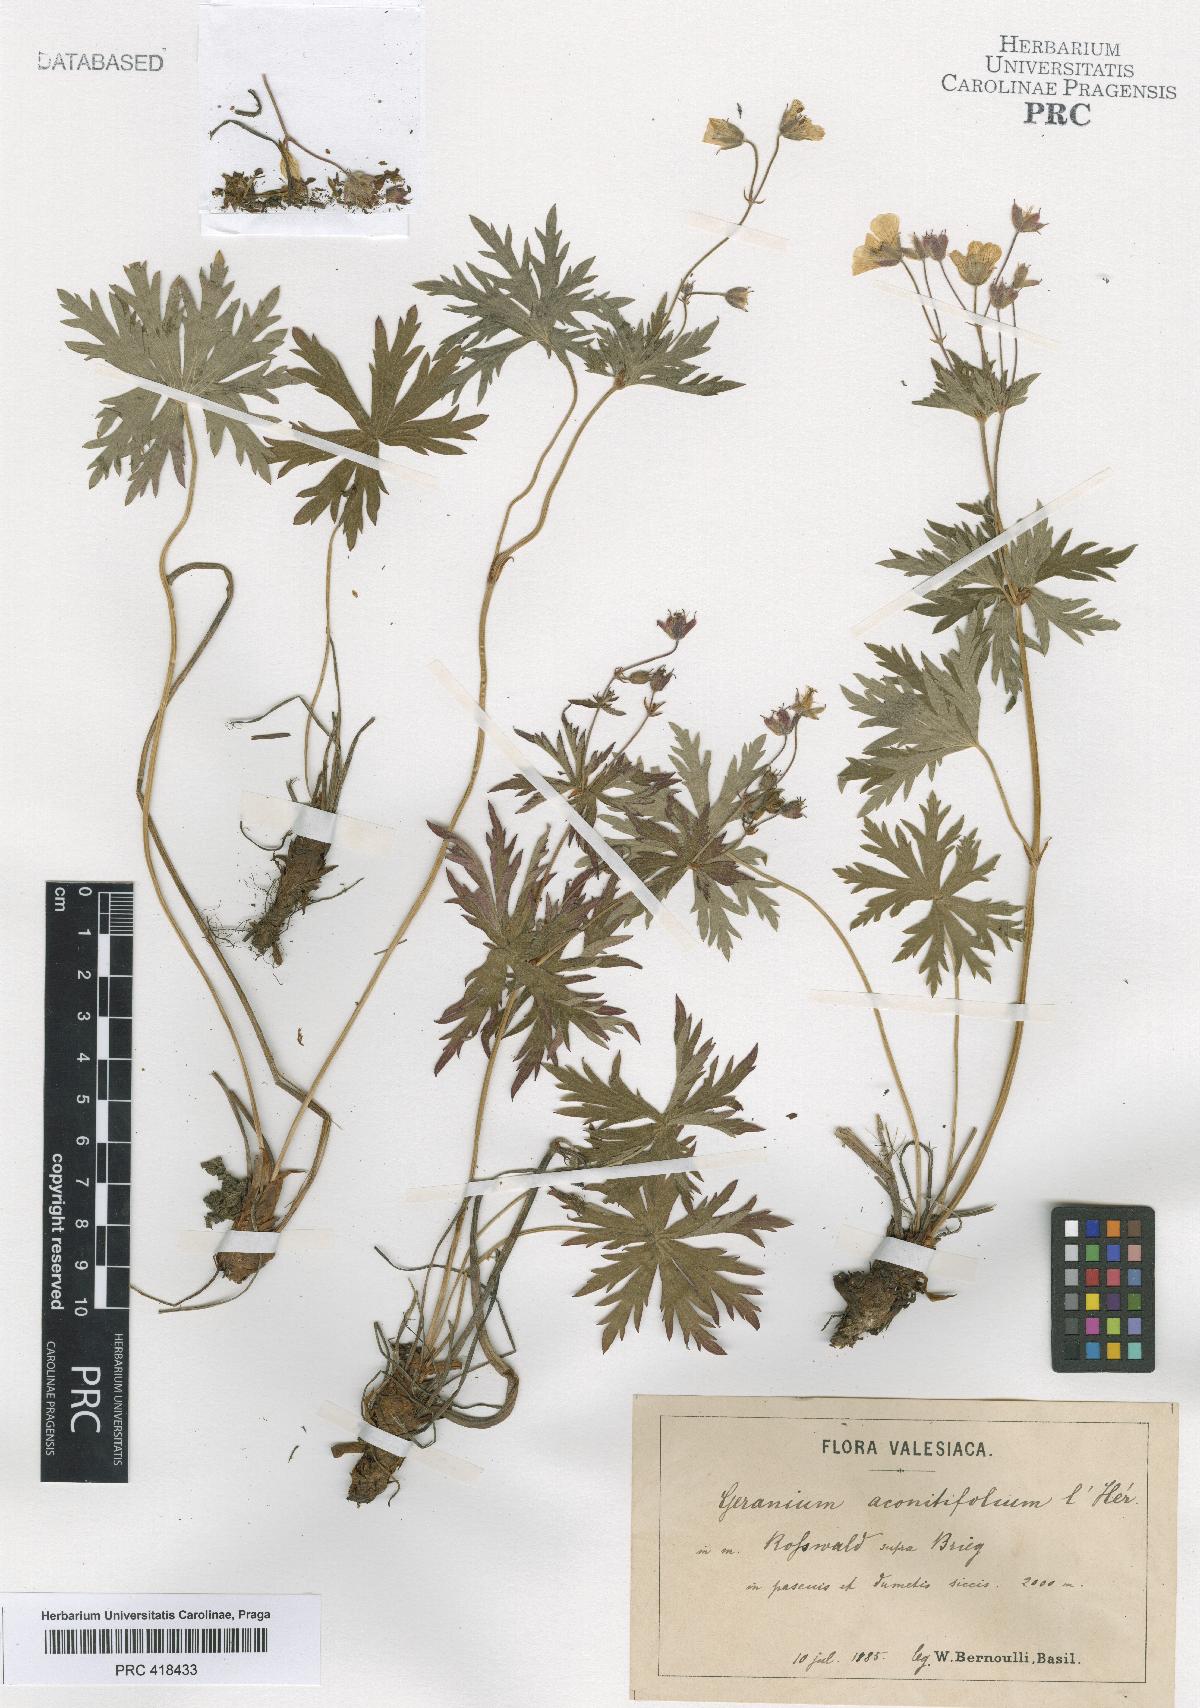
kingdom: Plantae
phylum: Tracheophyta
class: Magnoliopsida
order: Geraniales
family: Geraniaceae
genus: Geranium
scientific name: Geranium rivulare
